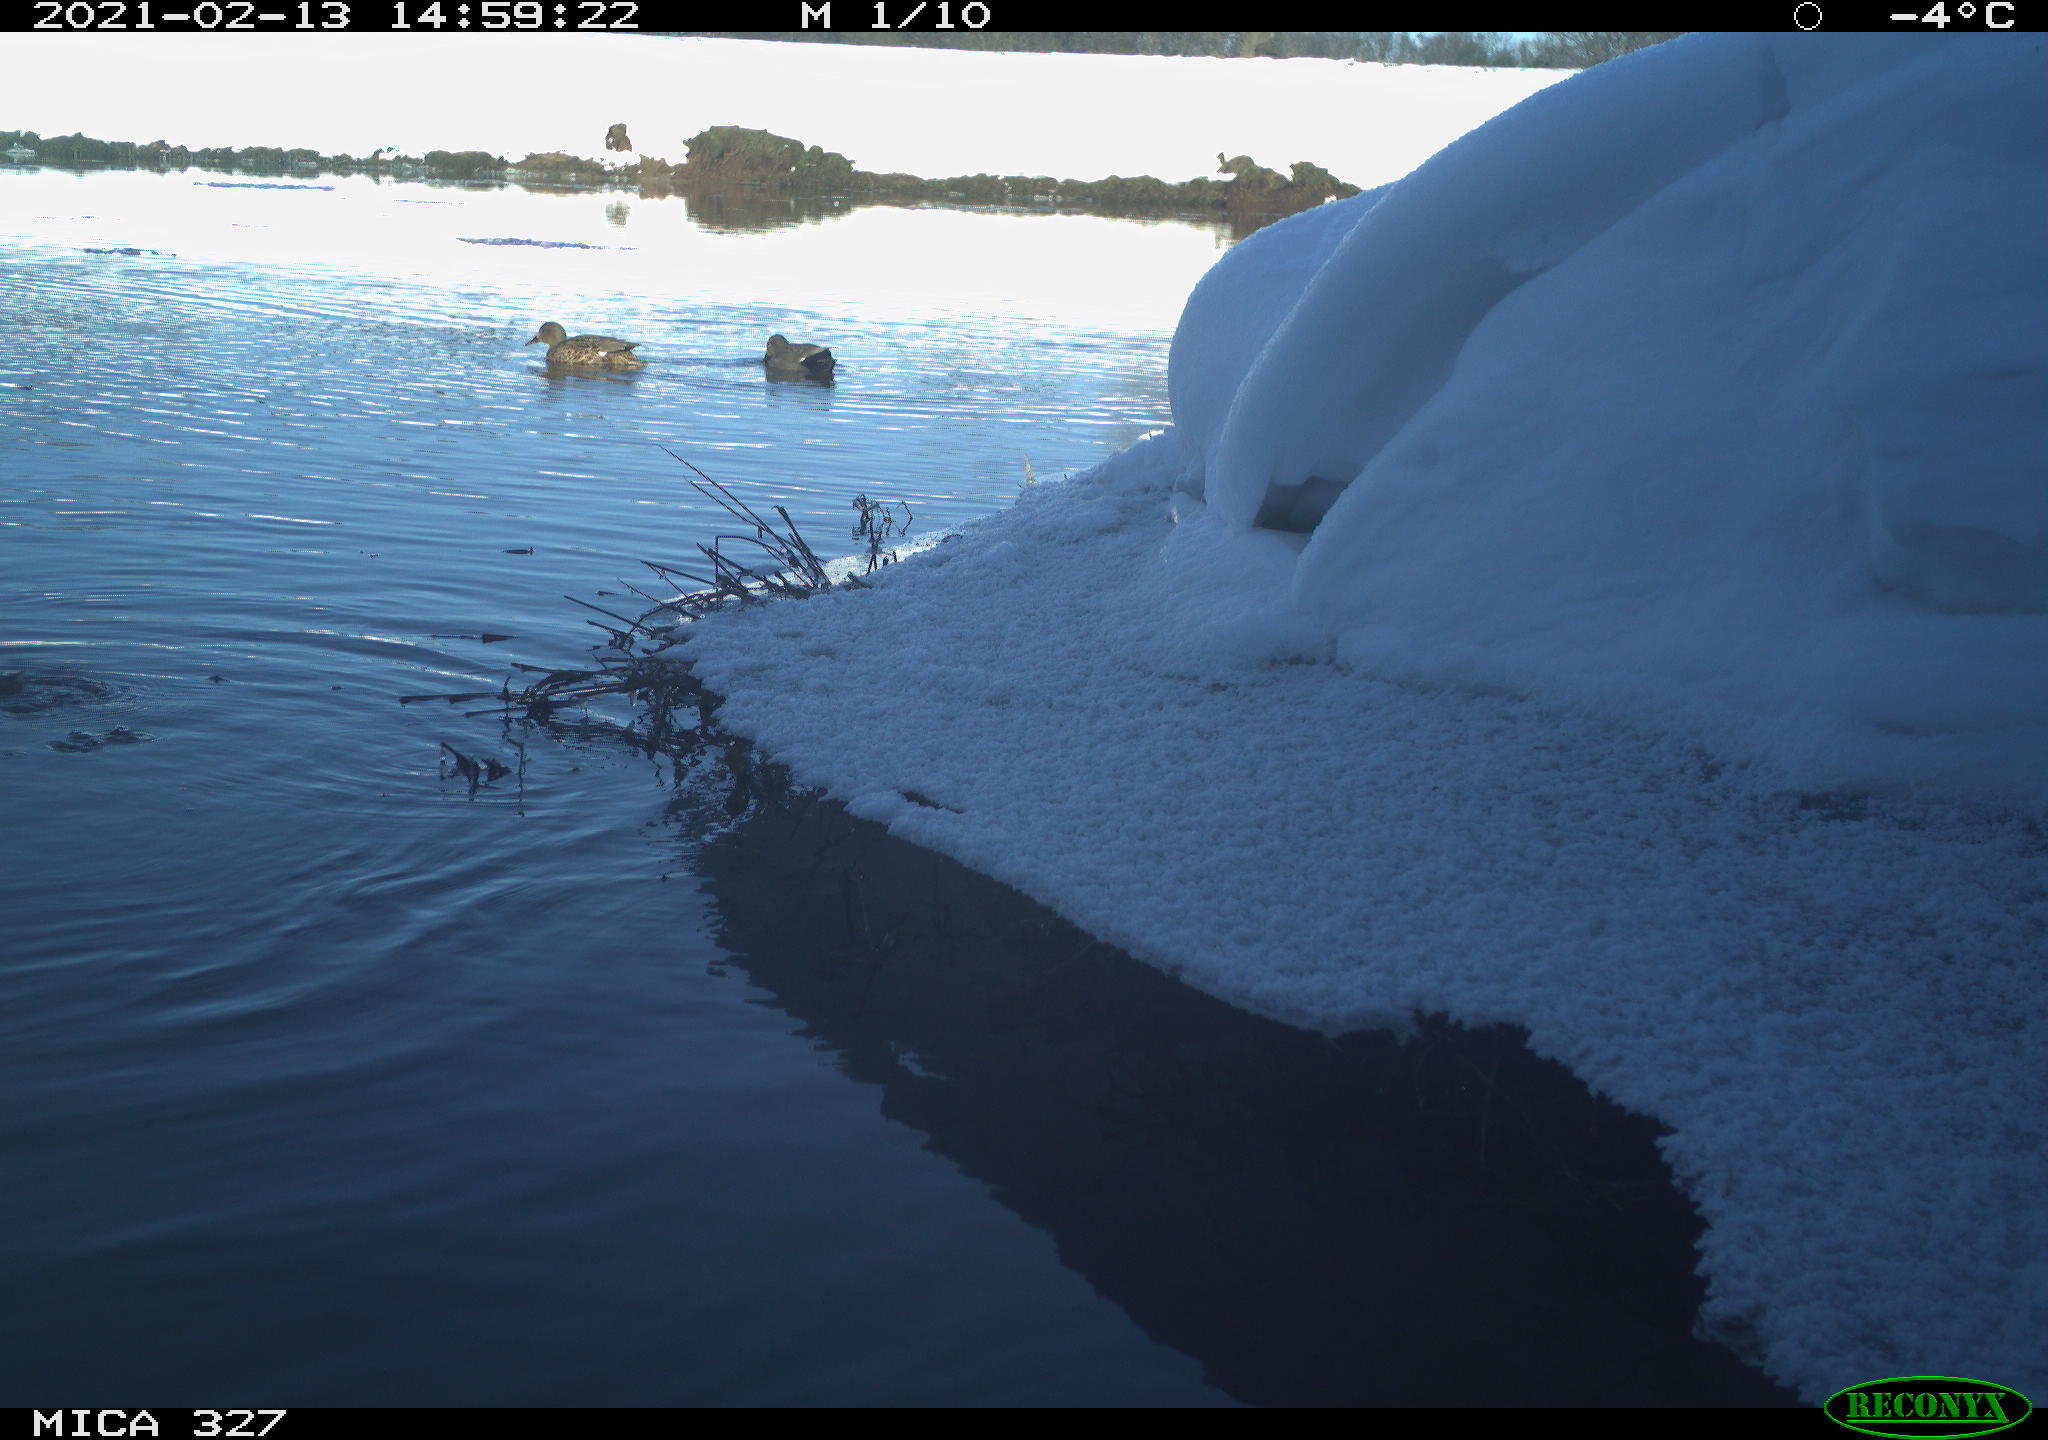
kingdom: Animalia
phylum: Chordata
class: Aves
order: Anseriformes
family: Anatidae
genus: Anas
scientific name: Anas
